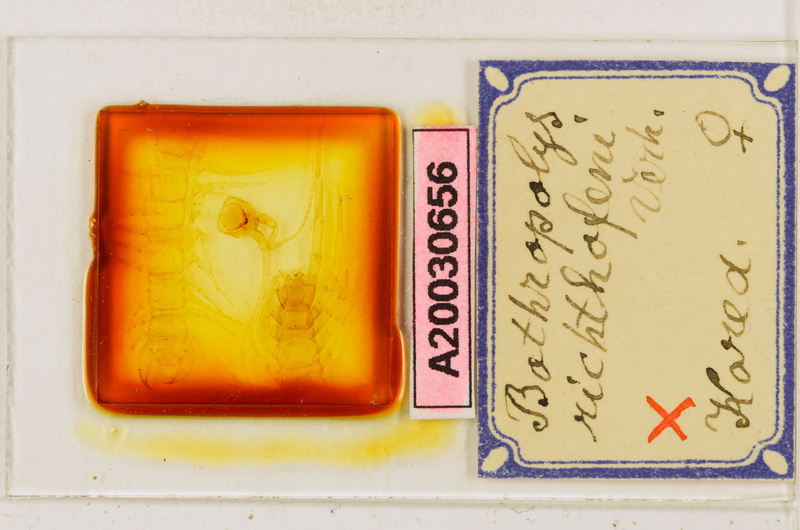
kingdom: Animalia
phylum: Arthropoda
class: Chilopoda
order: Lithobiomorpha
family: Lithobiidae
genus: Bothropolys
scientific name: Bothropolys richthofeni
